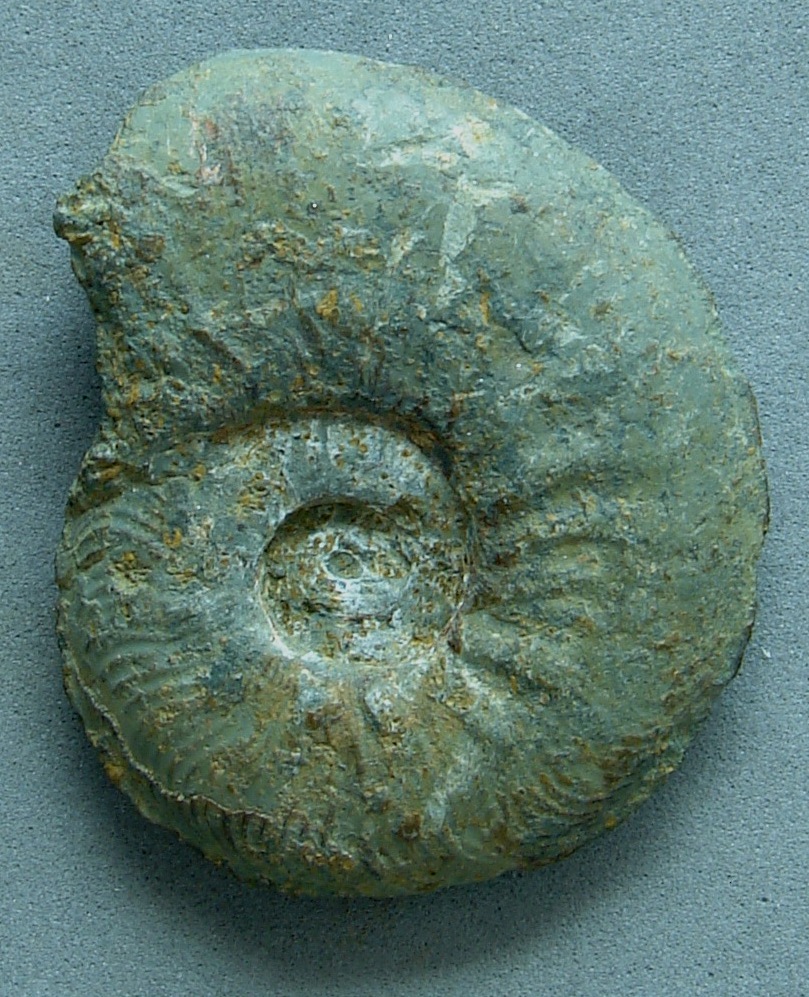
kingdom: Animalia
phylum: Mollusca
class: Cephalopoda
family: Hildoceratidae
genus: Pleydellia
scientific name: Pleydellia buckmani
